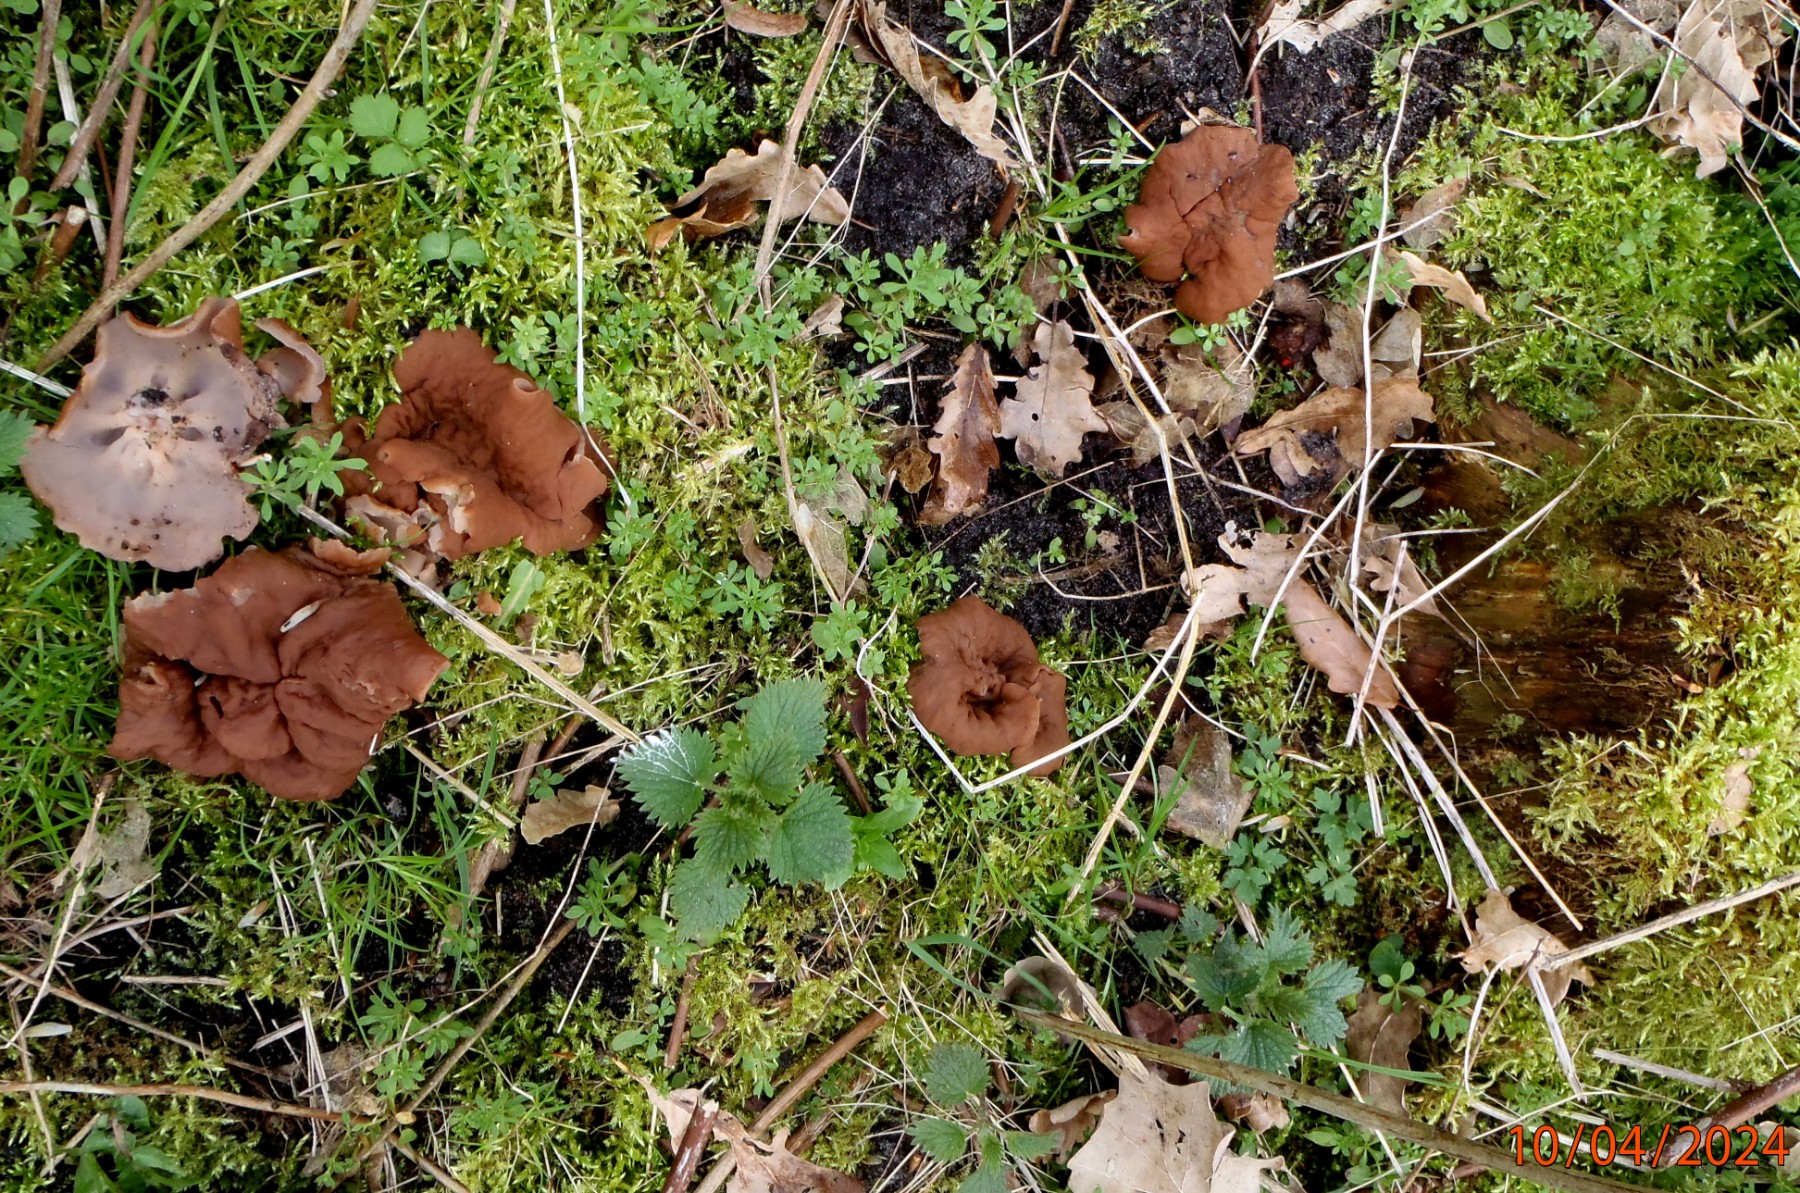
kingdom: Fungi
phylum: Ascomycota
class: Pezizomycetes
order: Pezizales
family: Discinaceae
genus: Discina
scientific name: Discina ancilis
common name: udbredt stenmorkel
